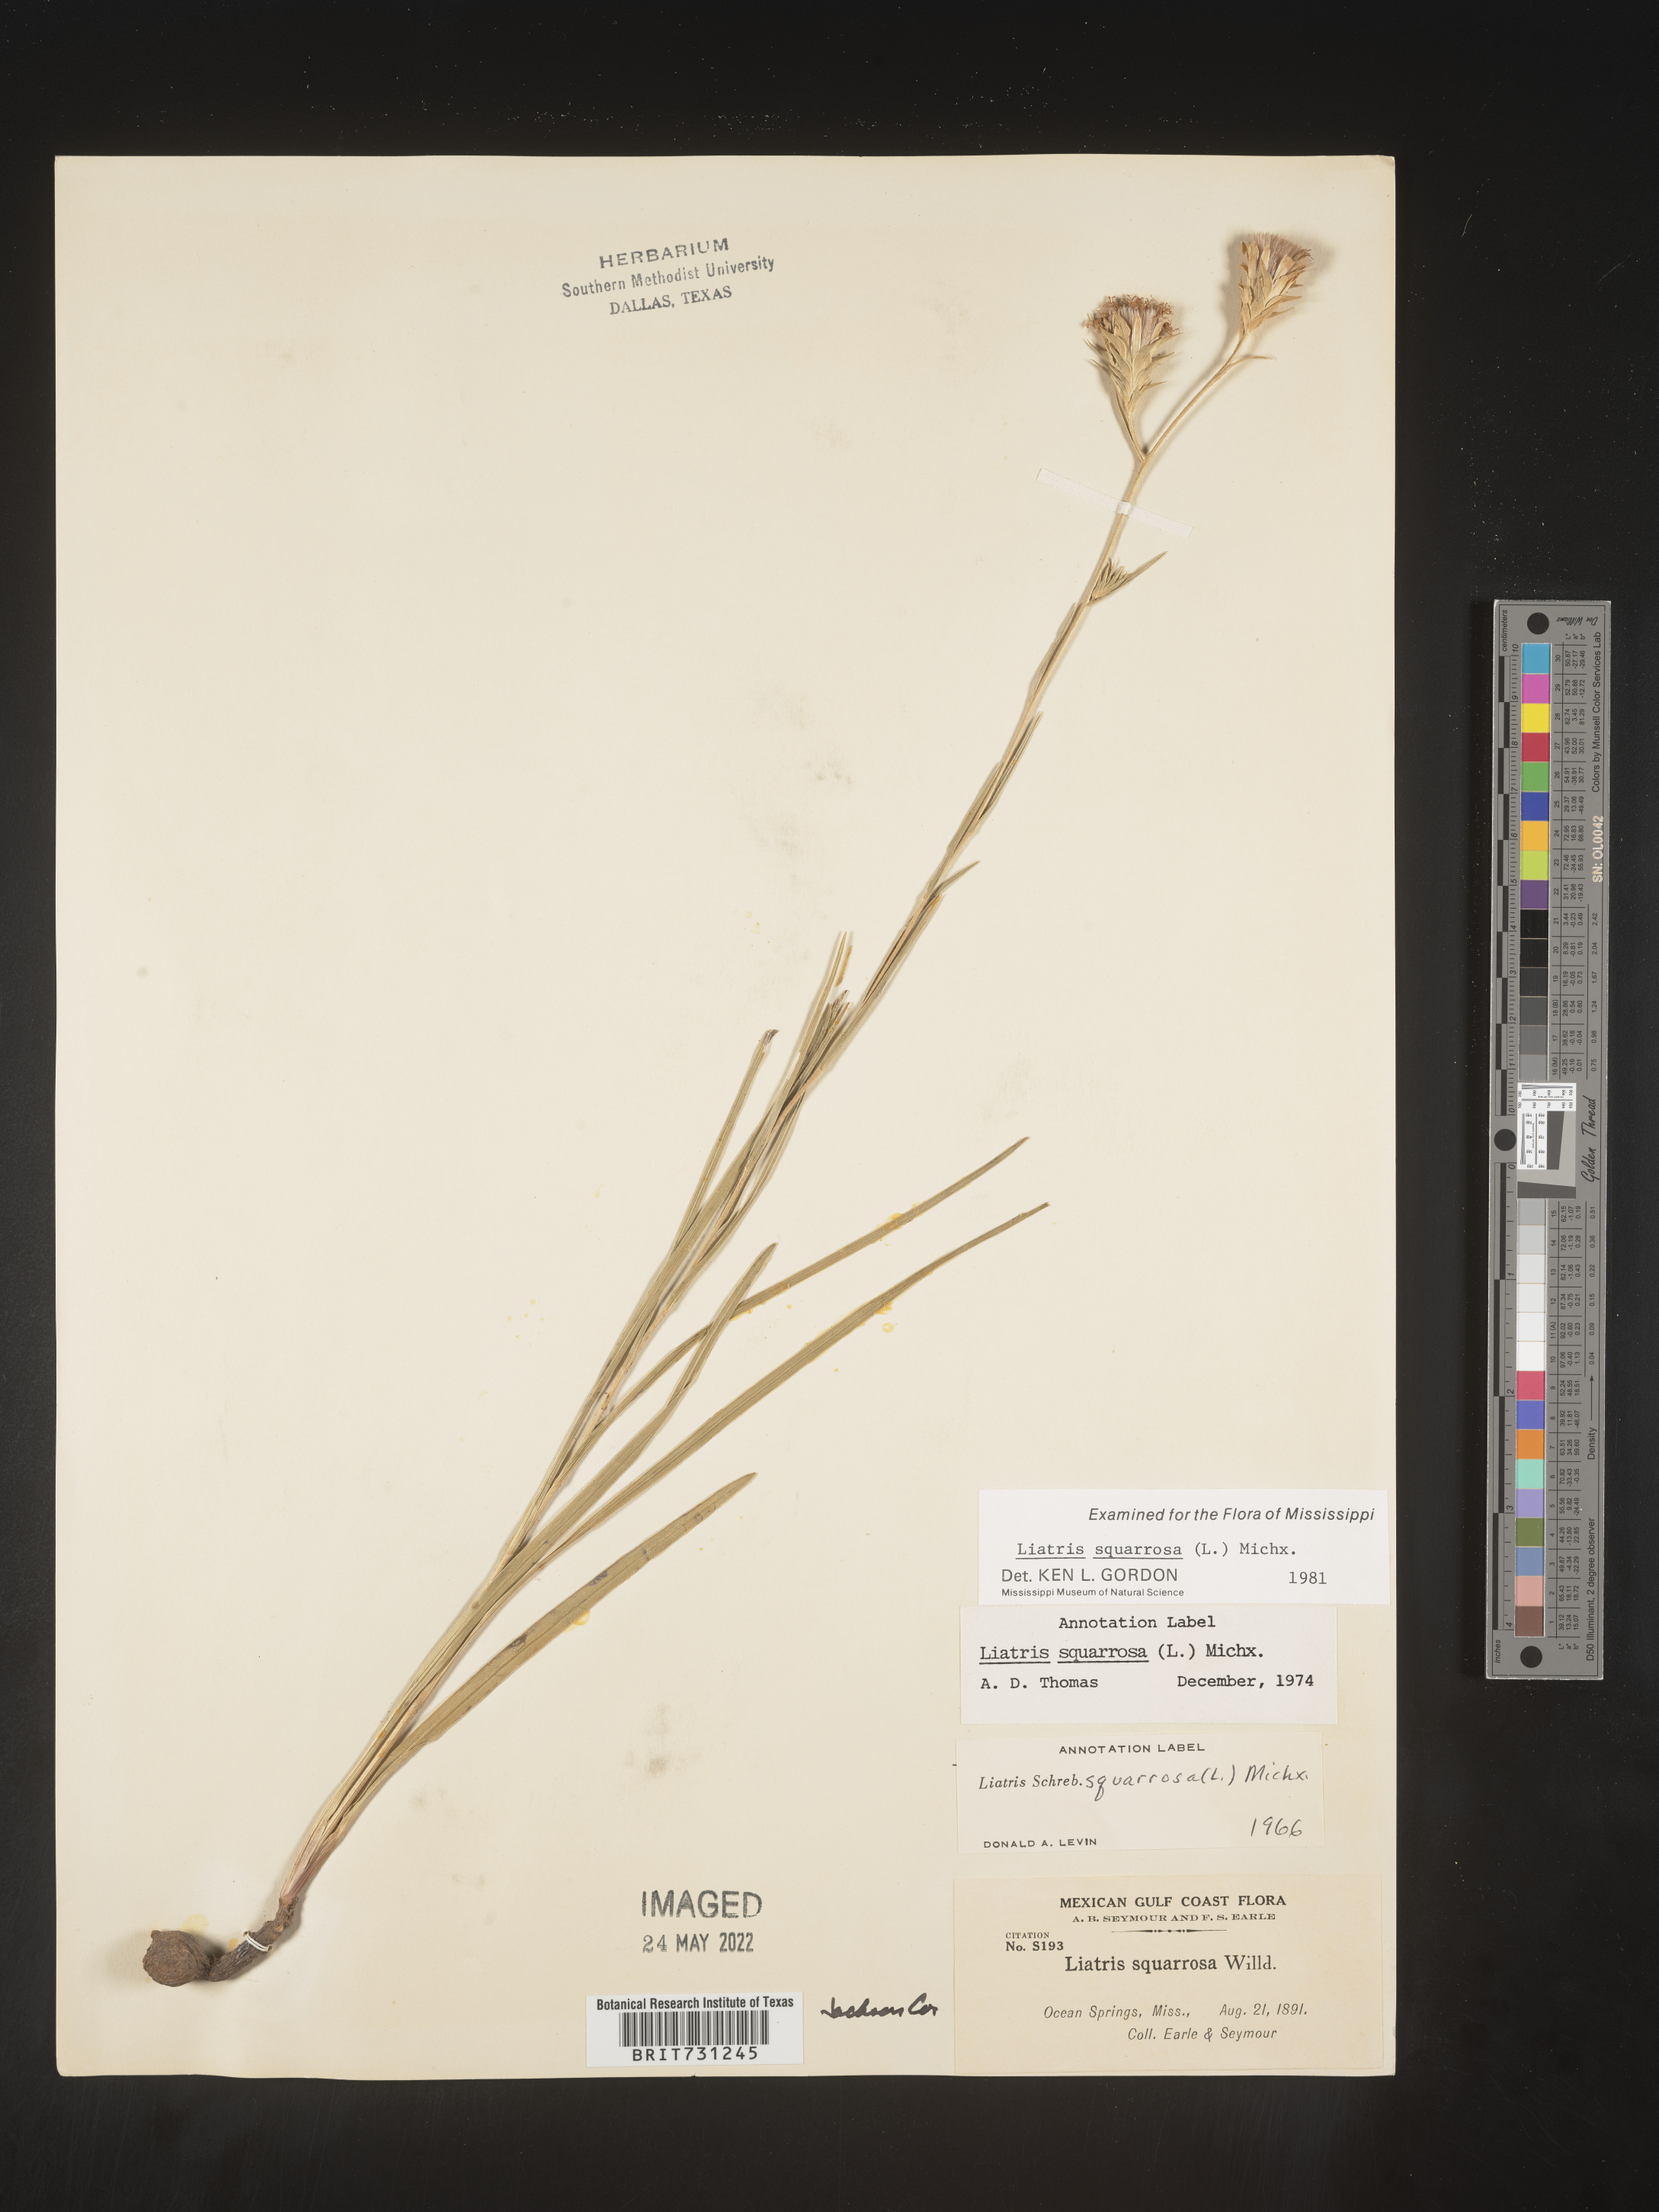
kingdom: Plantae
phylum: Tracheophyta
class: Magnoliopsida
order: Asterales
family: Asteraceae
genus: Liatris
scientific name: Liatris squarrosa
